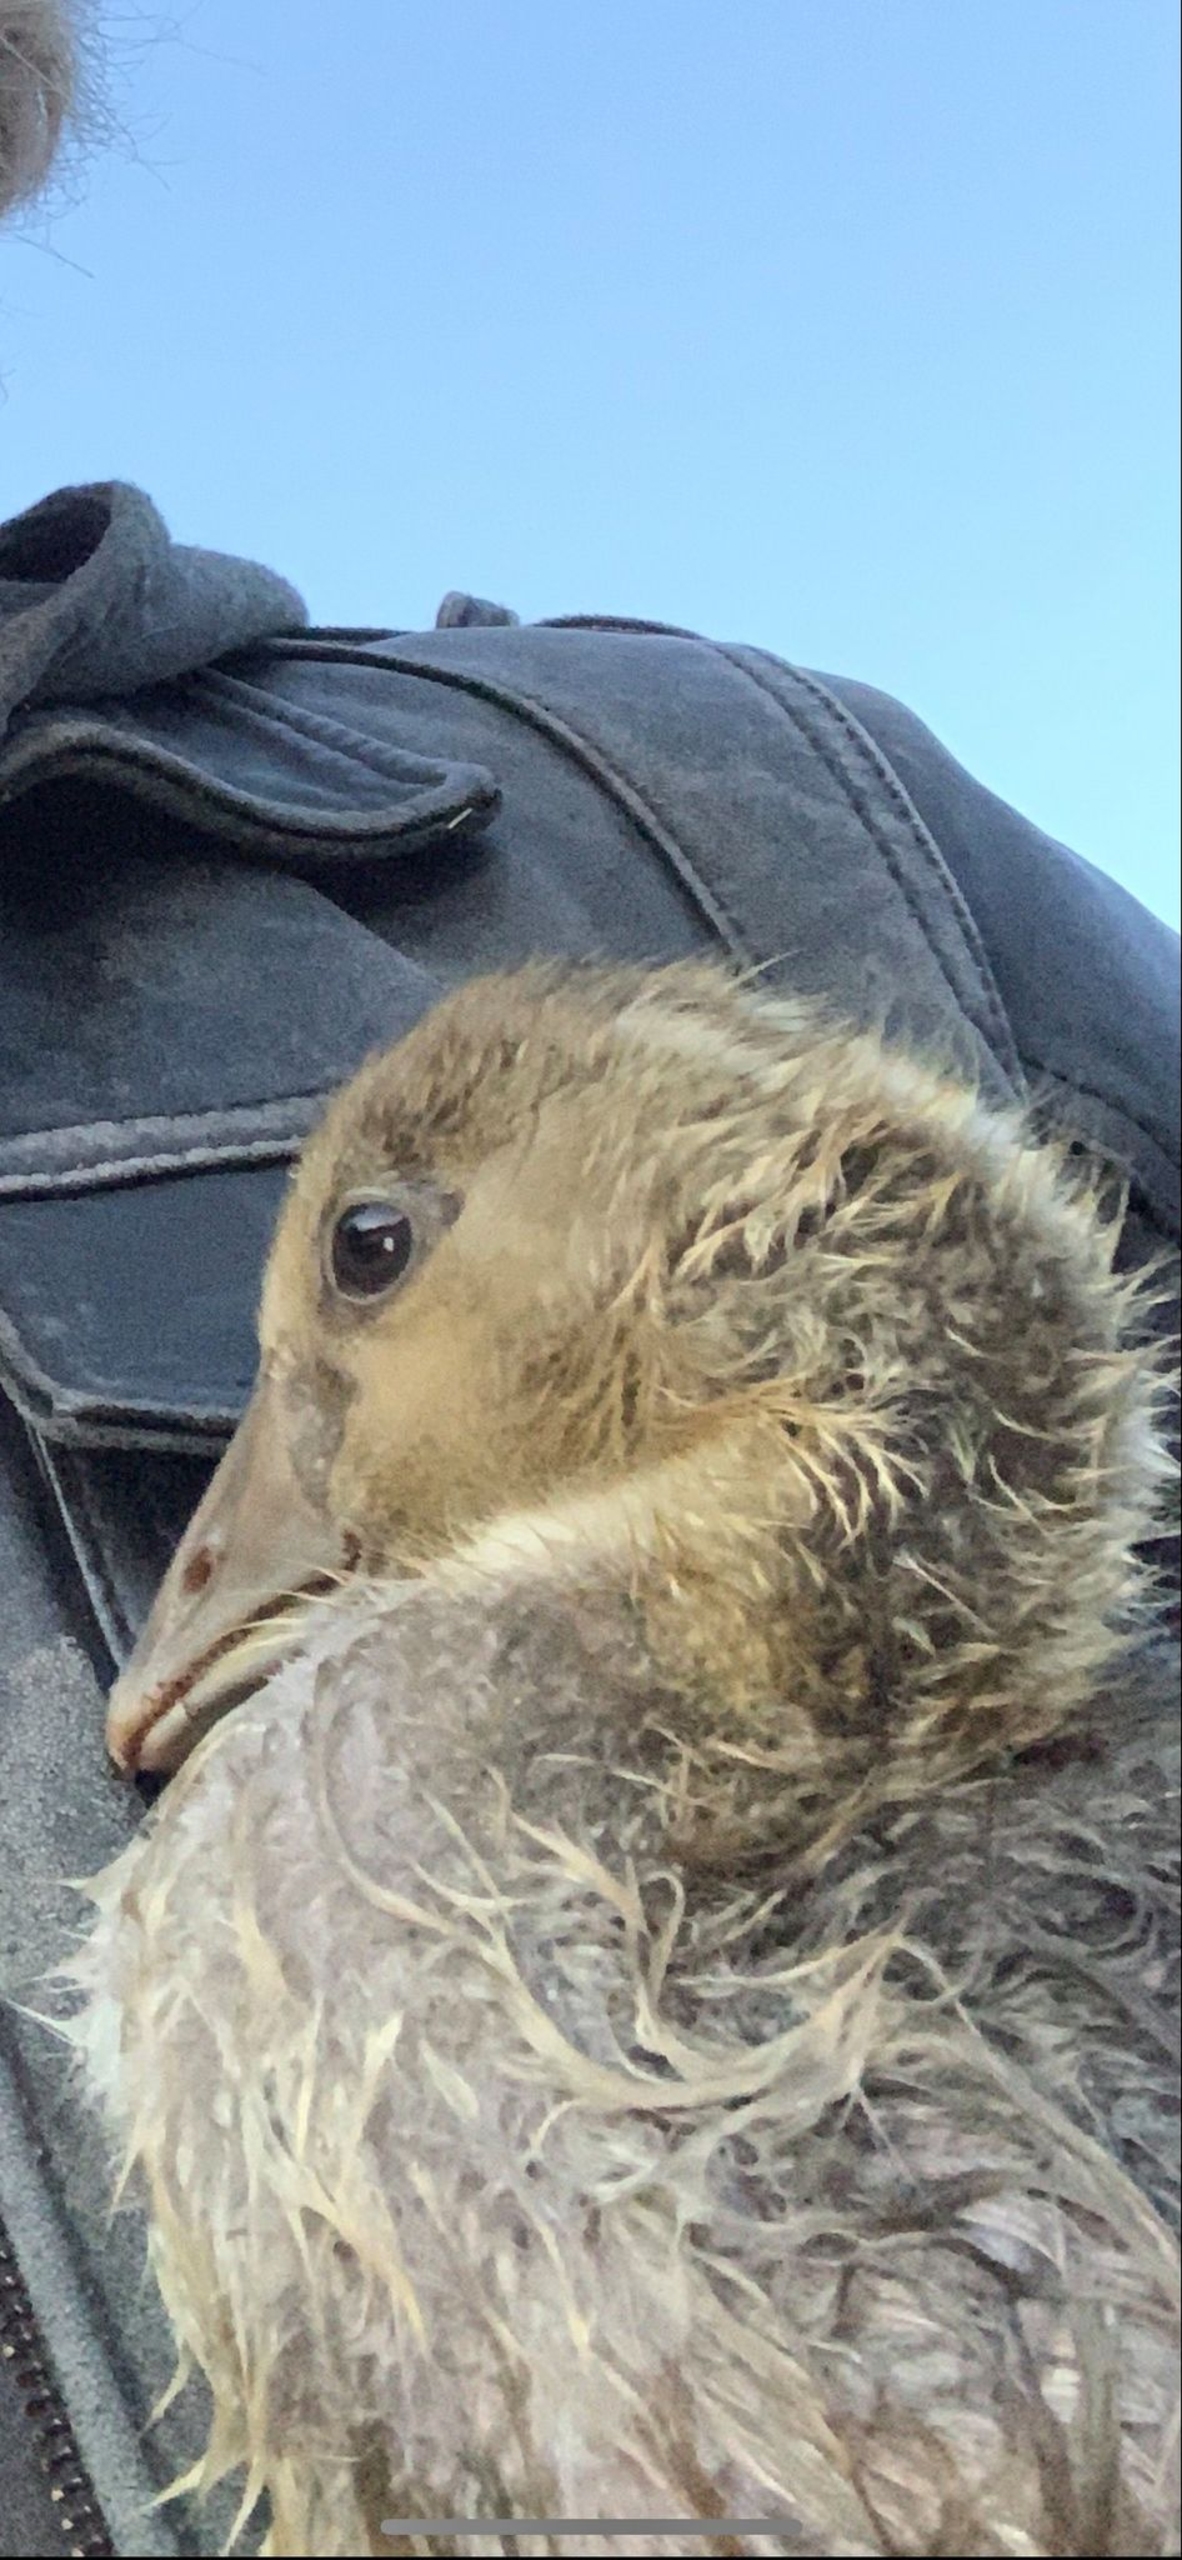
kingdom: Animalia
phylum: Chordata
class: Aves
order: Anseriformes
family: Anatidae
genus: Anser
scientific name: Anser anser
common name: Grågås
